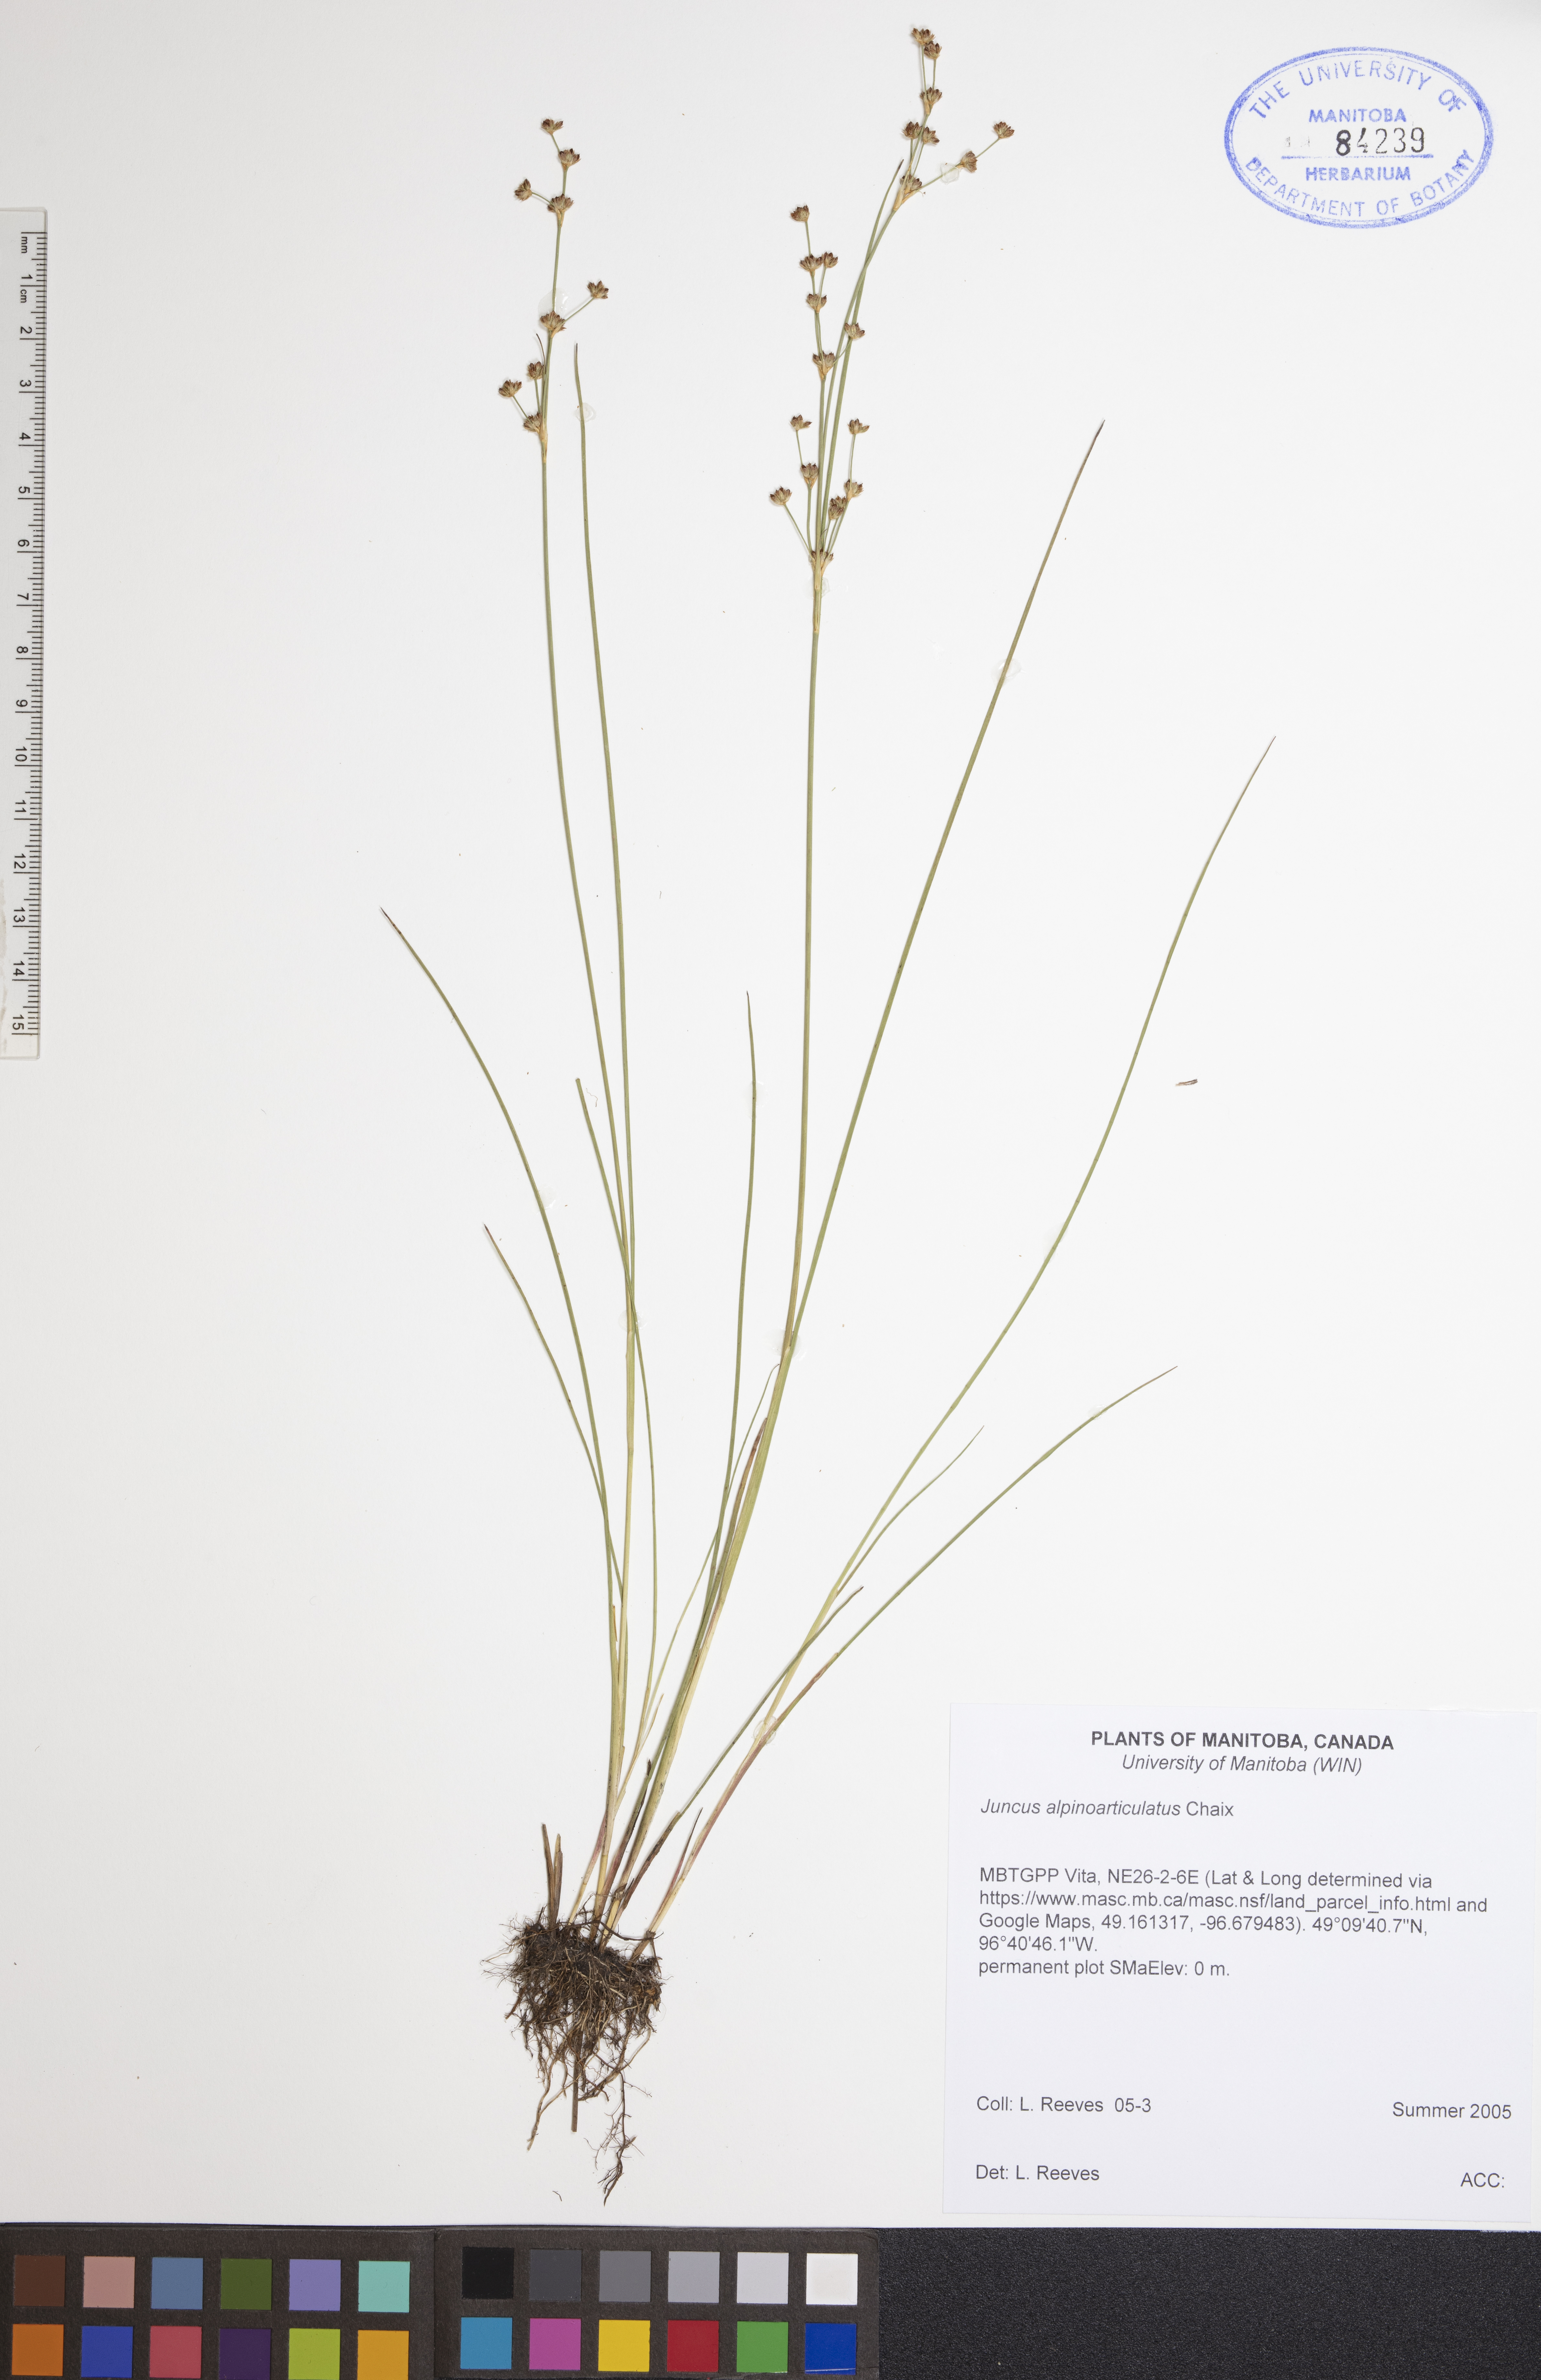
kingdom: Plantae
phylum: Tracheophyta
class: Liliopsida
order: Poales
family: Juncaceae
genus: Juncus
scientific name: Juncus alpinoarticulatus
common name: Alpine rush
